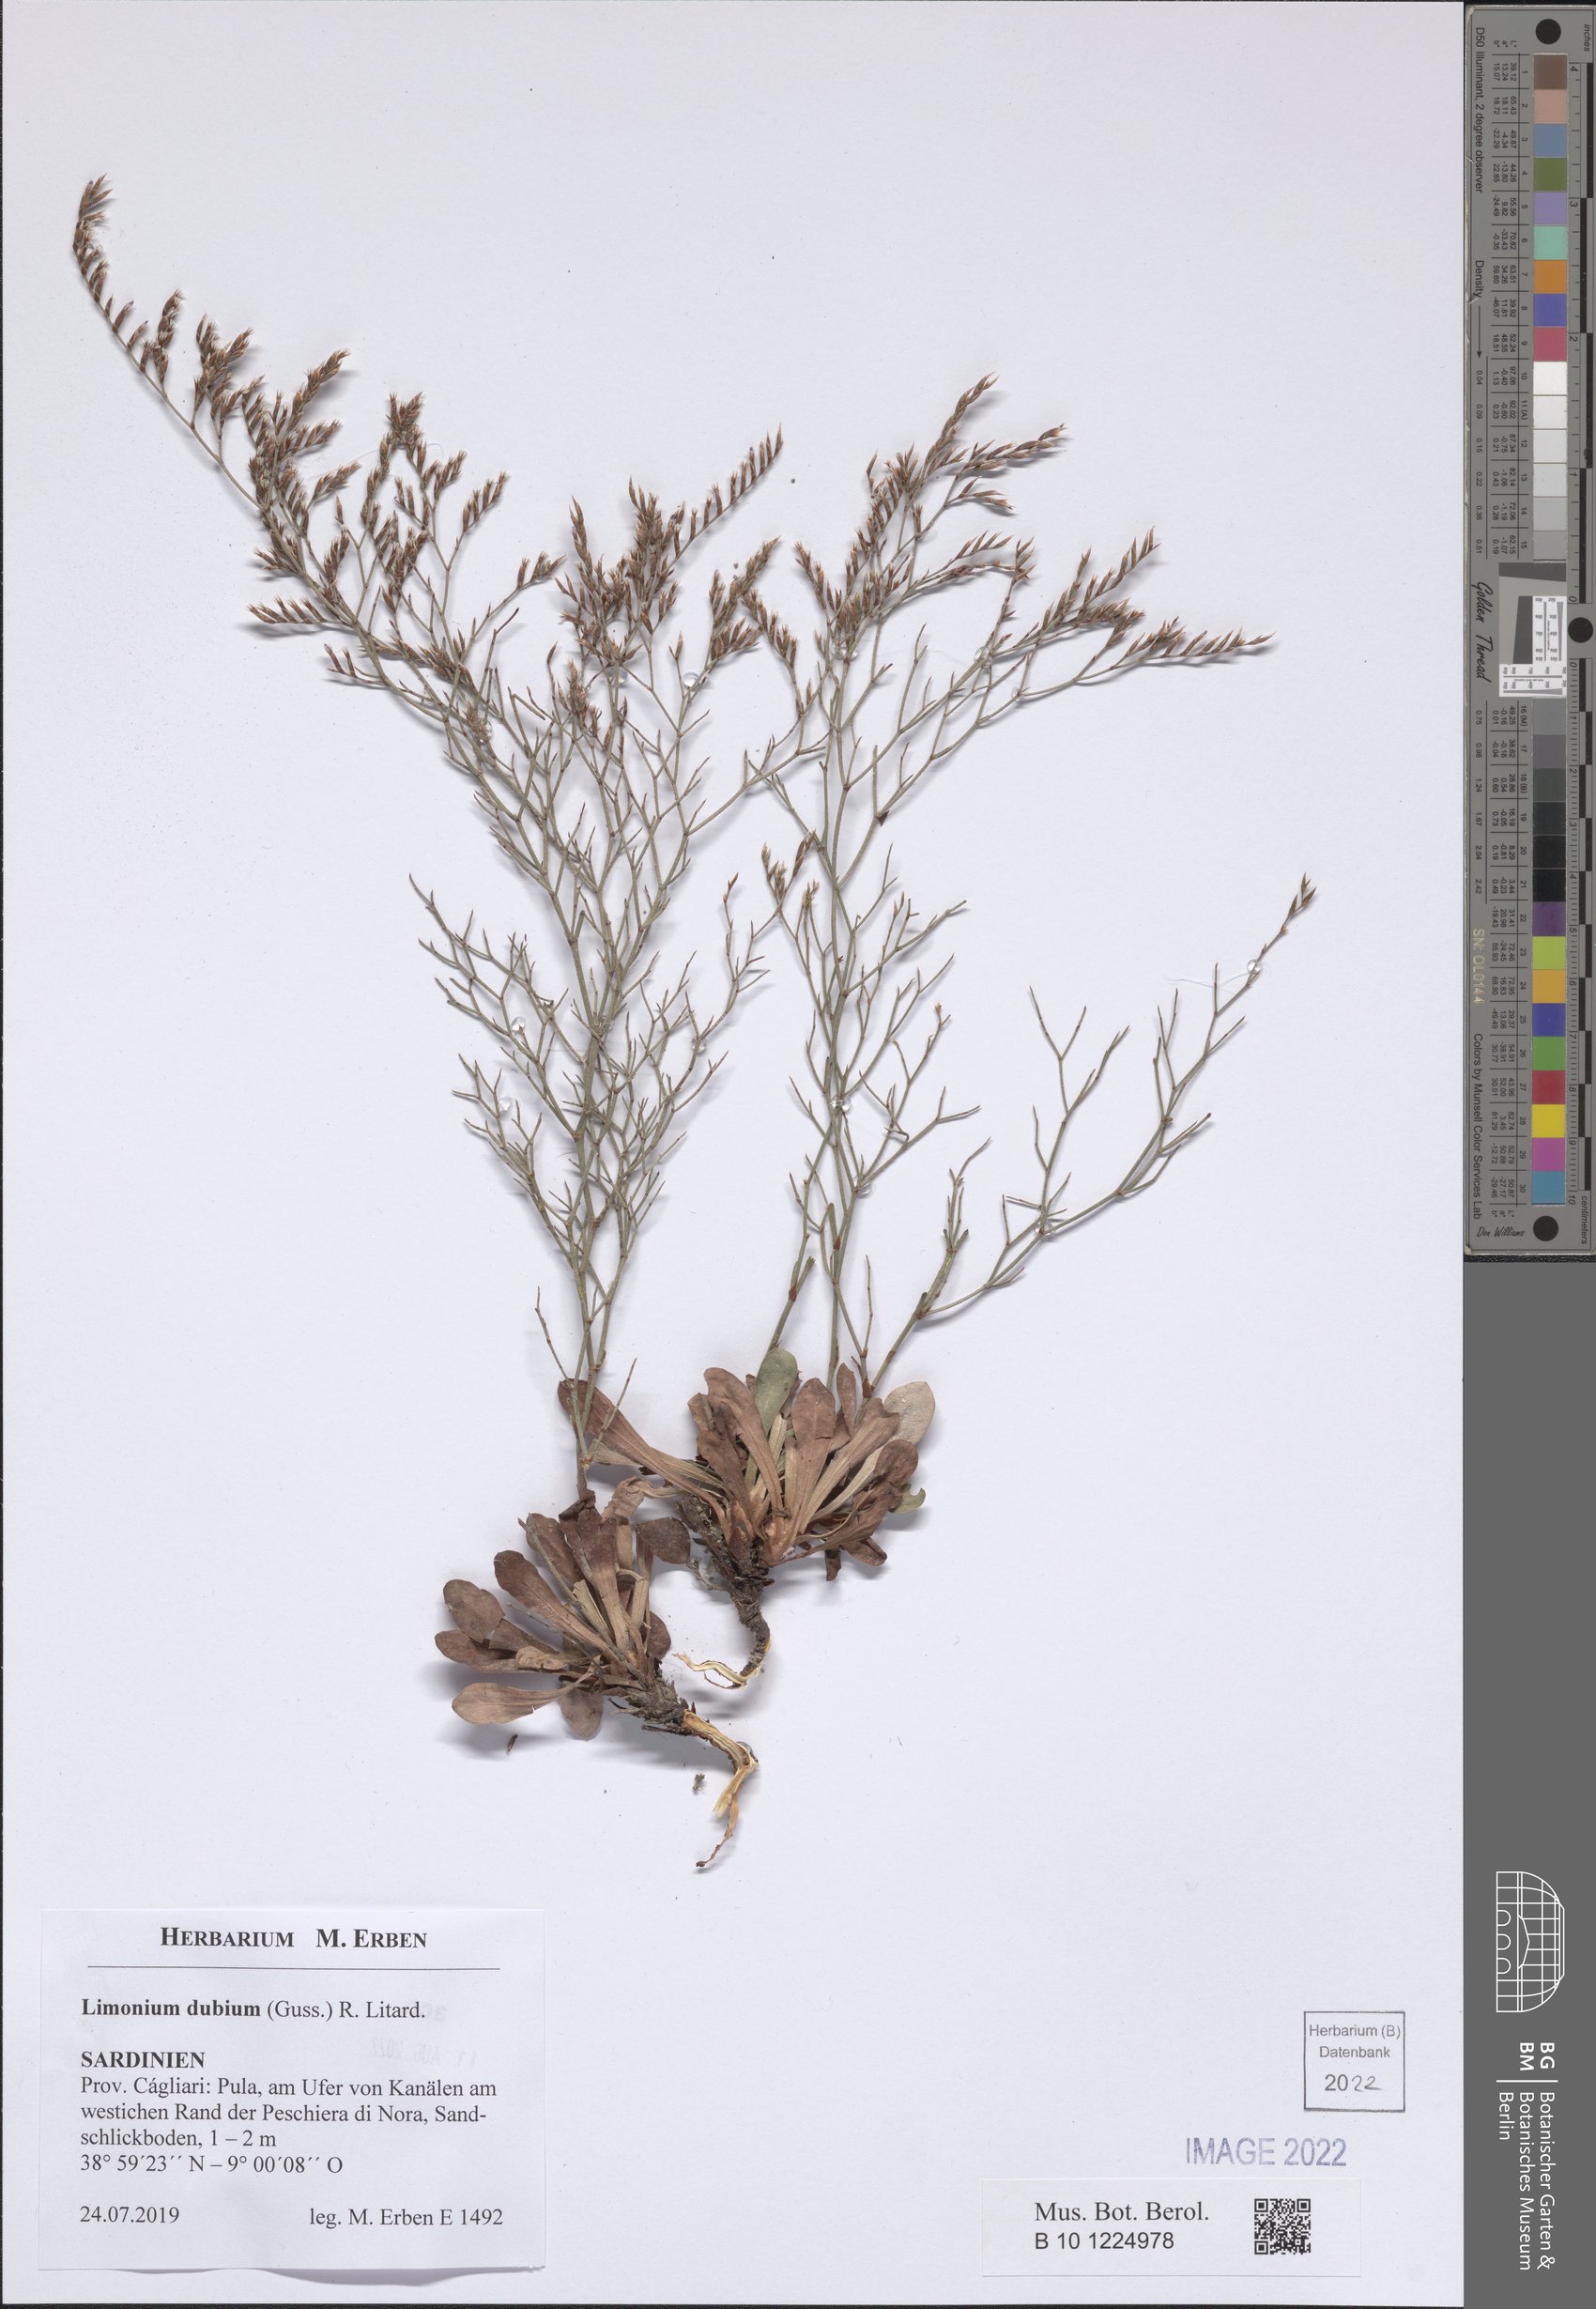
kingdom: Plantae
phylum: Tracheophyta
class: Magnoliopsida
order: Caryophyllales
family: Plumbaginaceae
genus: Limonium
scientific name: Limonium dubium
